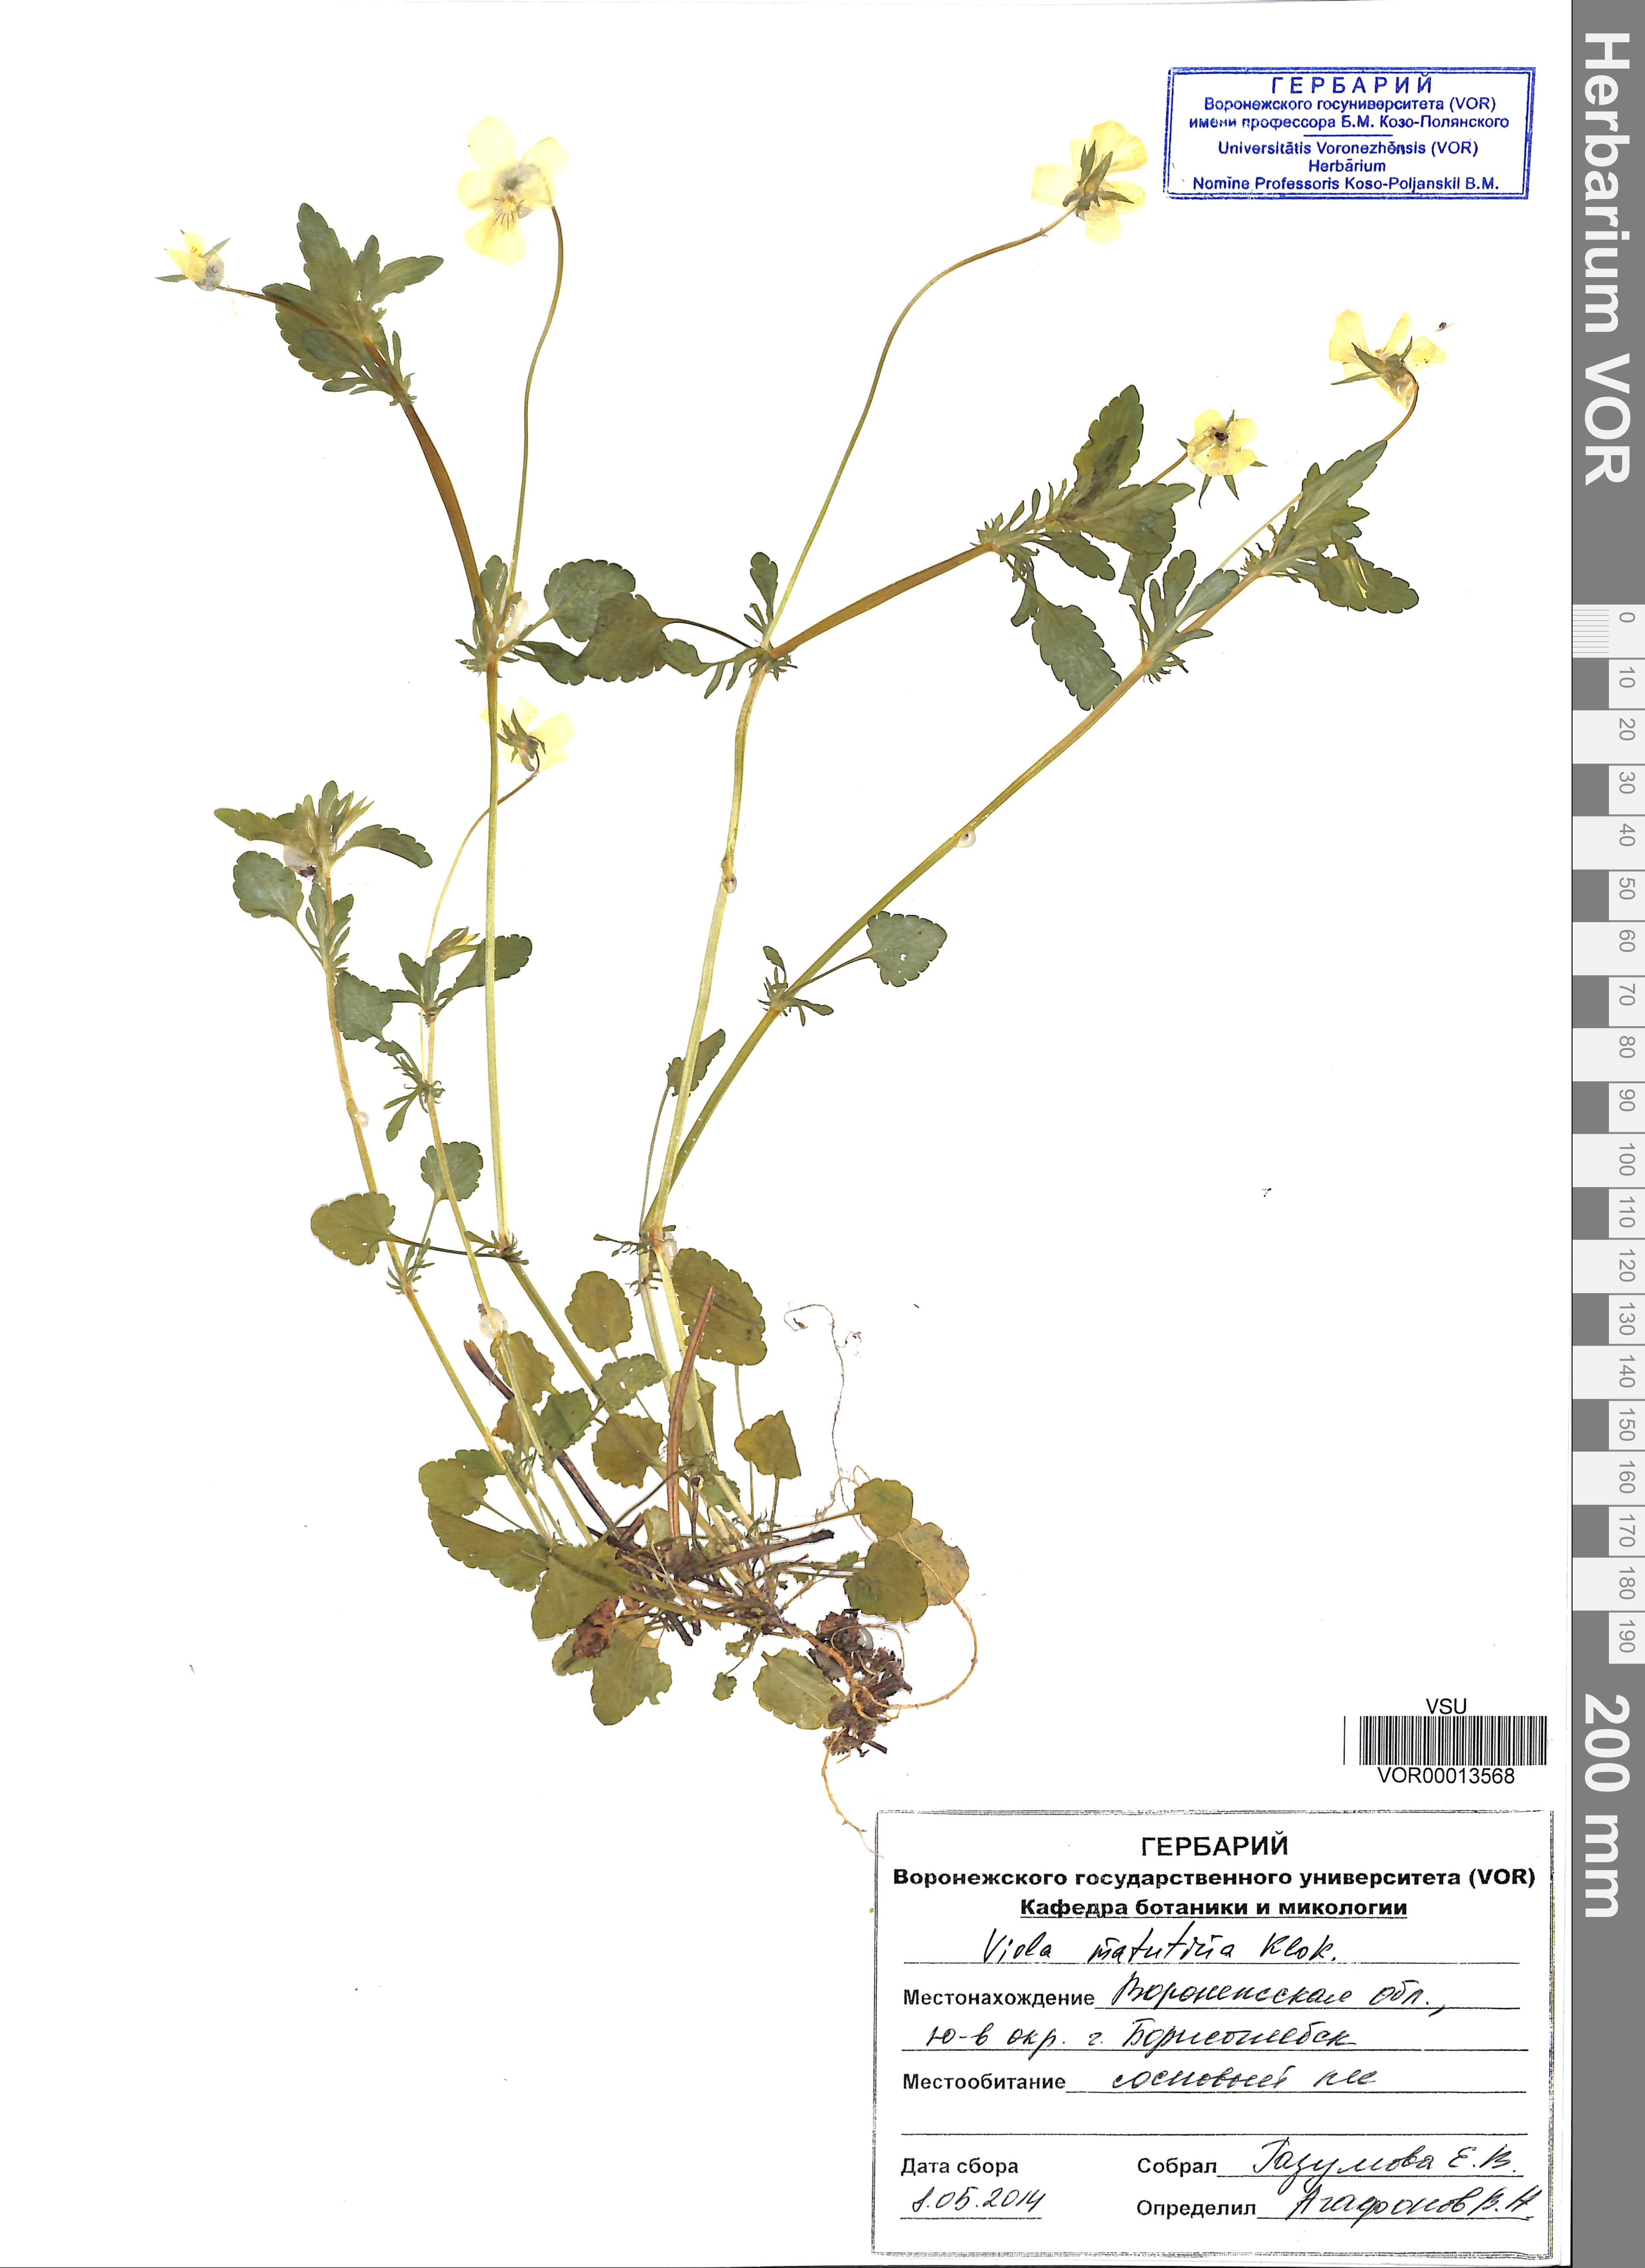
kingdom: Plantae
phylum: Tracheophyta
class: Magnoliopsida
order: Malpighiales
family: Violaceae
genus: Viola
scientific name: Viola tricolor
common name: Pansy
